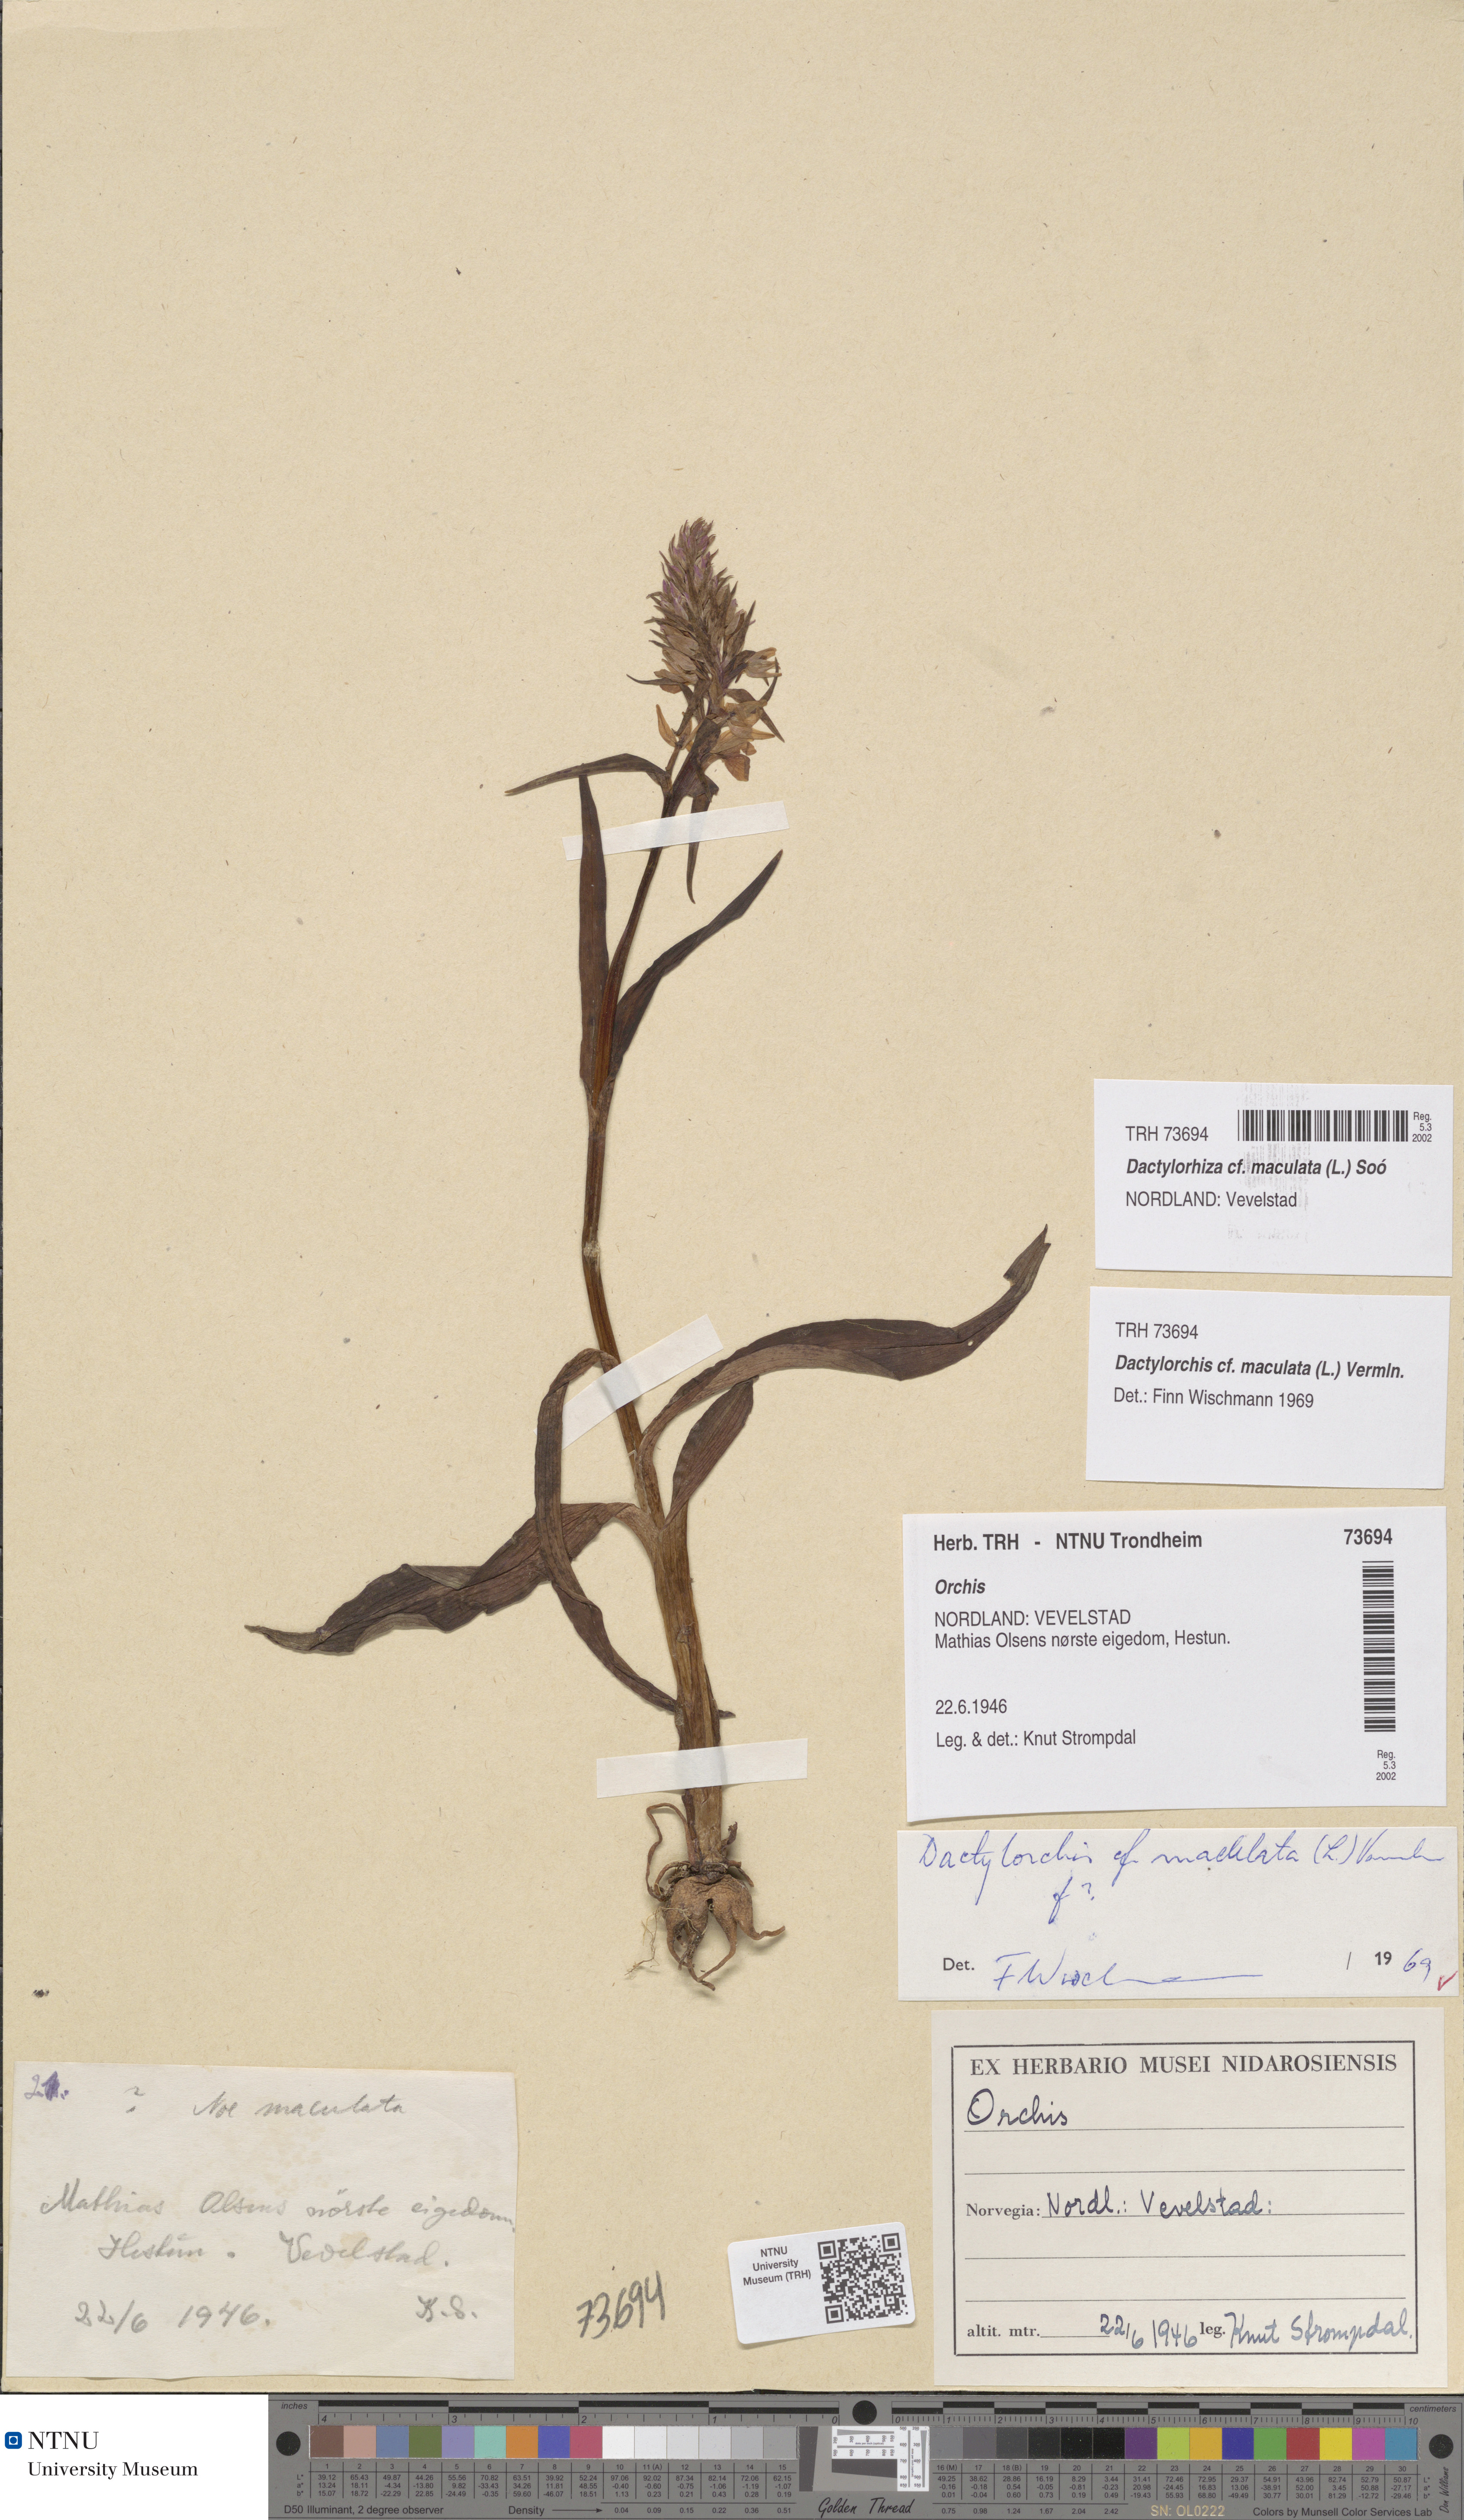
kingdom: Plantae
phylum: Tracheophyta
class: Liliopsida
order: Asparagales
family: Orchidaceae
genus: Dactylorhiza
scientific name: Dactylorhiza maculata
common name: Heath spotted-orchid
